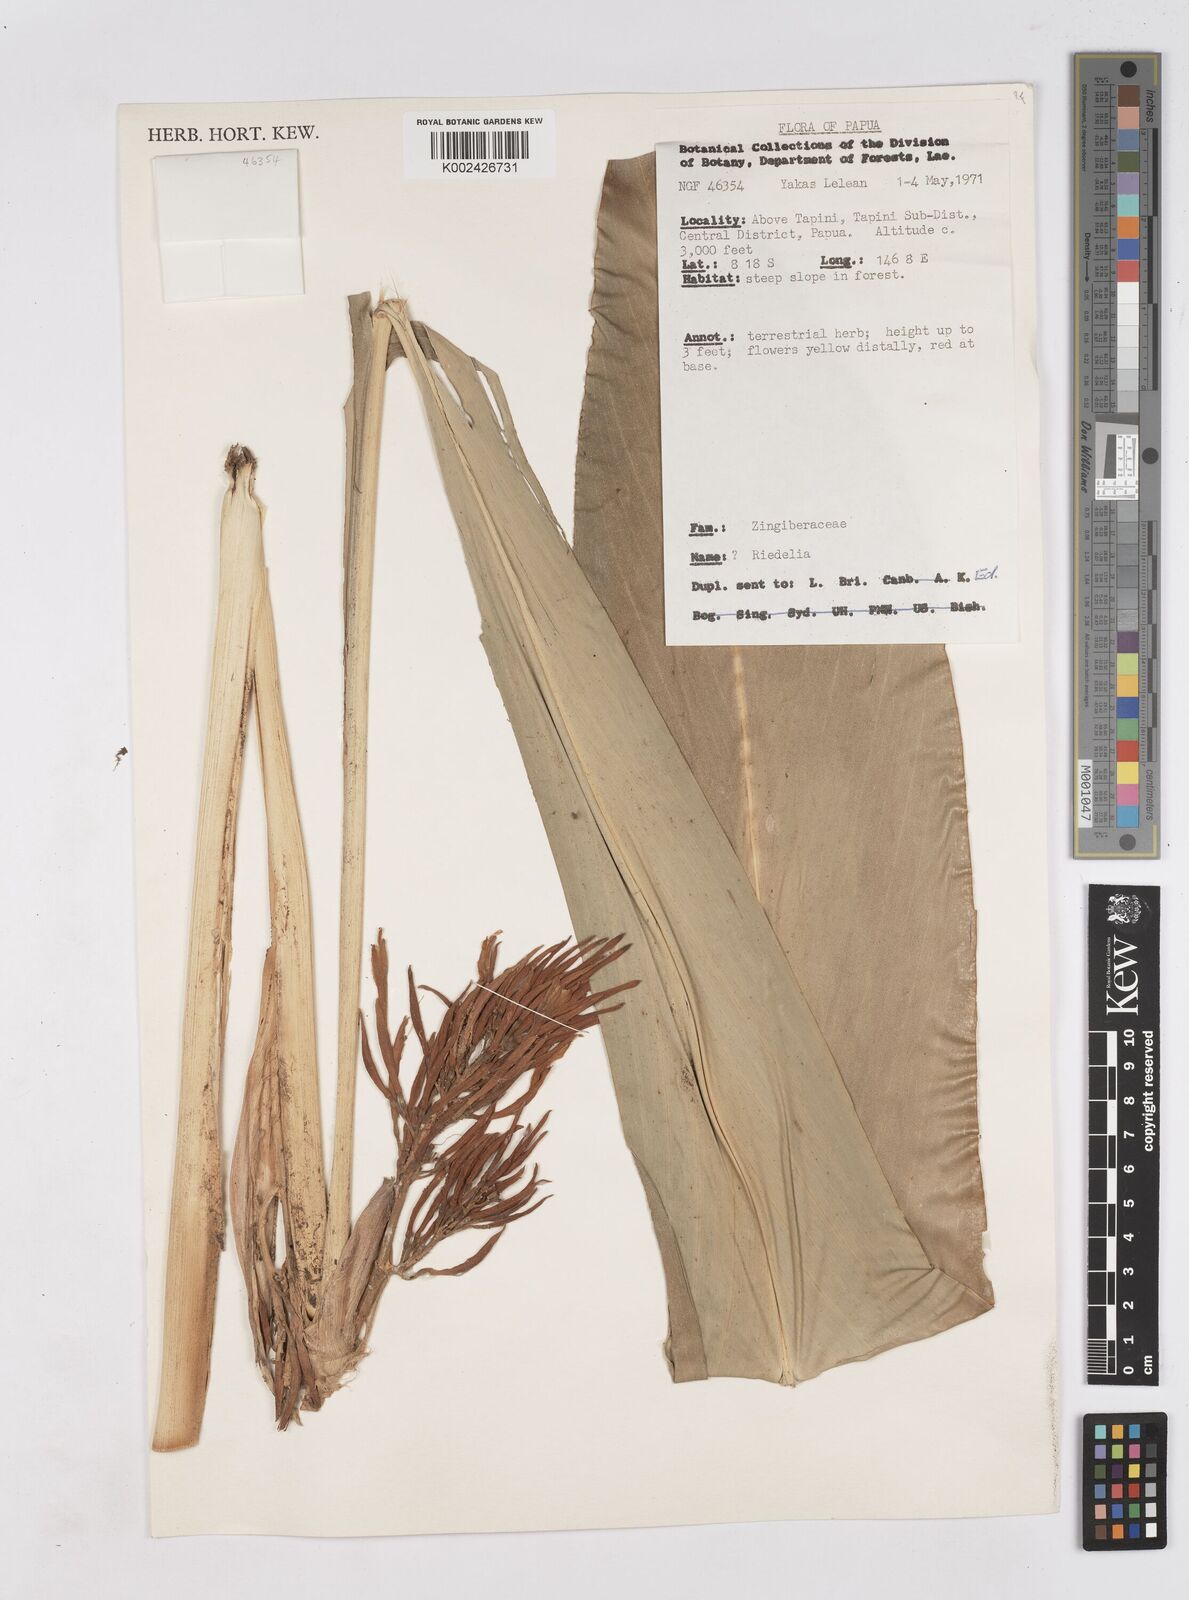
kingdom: Plantae
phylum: Tracheophyta
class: Liliopsida
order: Zingiberales
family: Zingiberaceae
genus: Riedelia
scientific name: Riedelia corallina
